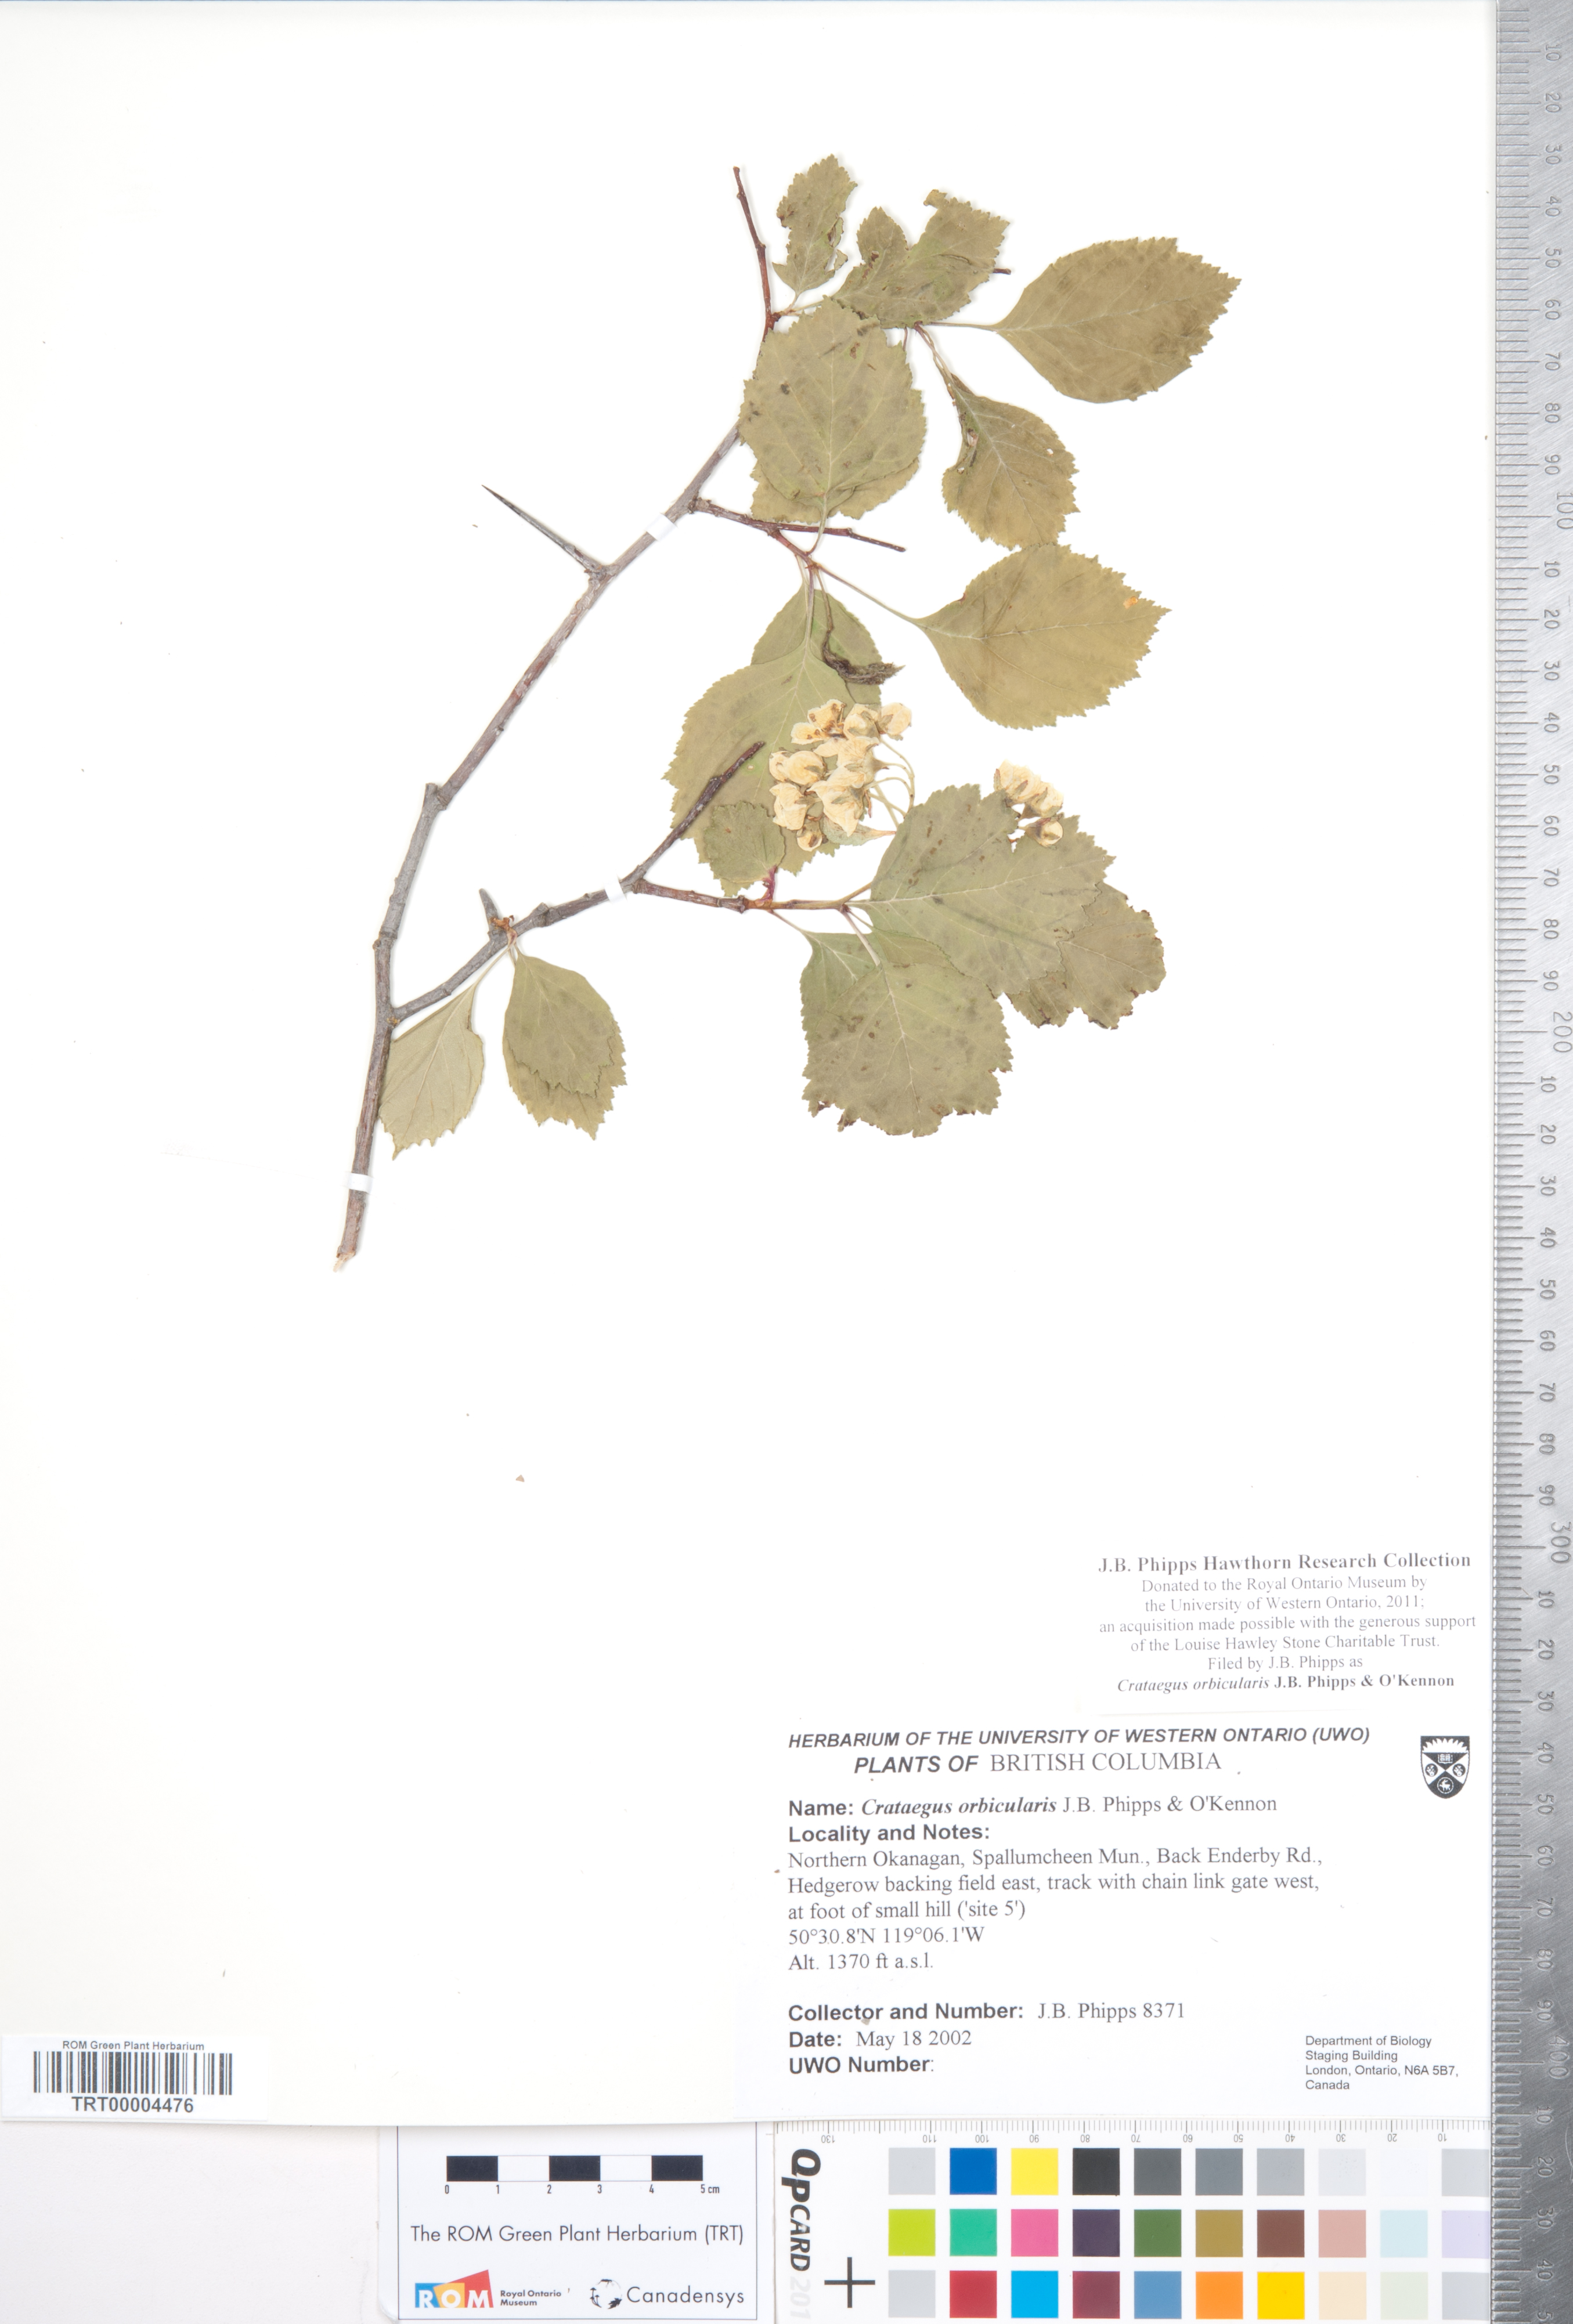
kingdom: Plantae
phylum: Tracheophyta
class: Magnoliopsida
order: Rosales
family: Rosaceae
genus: Crataegus
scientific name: Crataegus orbicularis
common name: Orbicular-leaved hawthorn
